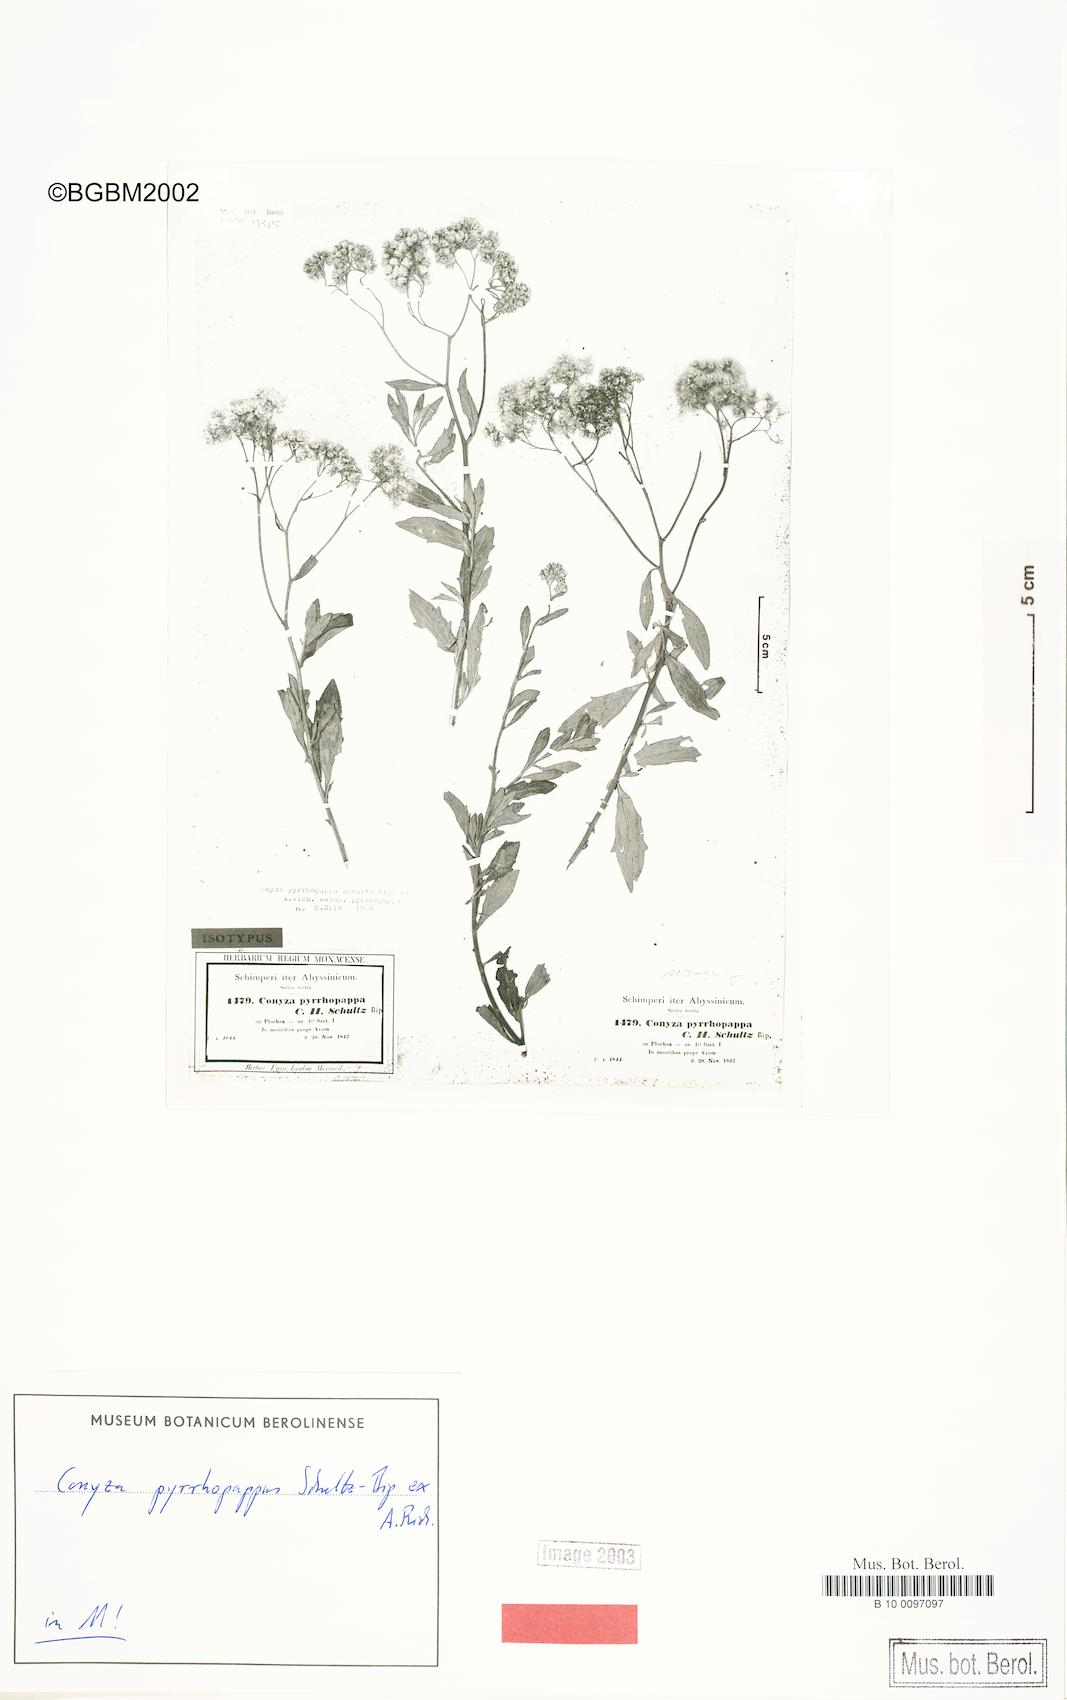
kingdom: Plantae
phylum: Tracheophyta
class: Magnoliopsida
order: Asterales
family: Asteraceae
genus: Microglossa
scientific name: Microglossa pyrrhopappa
